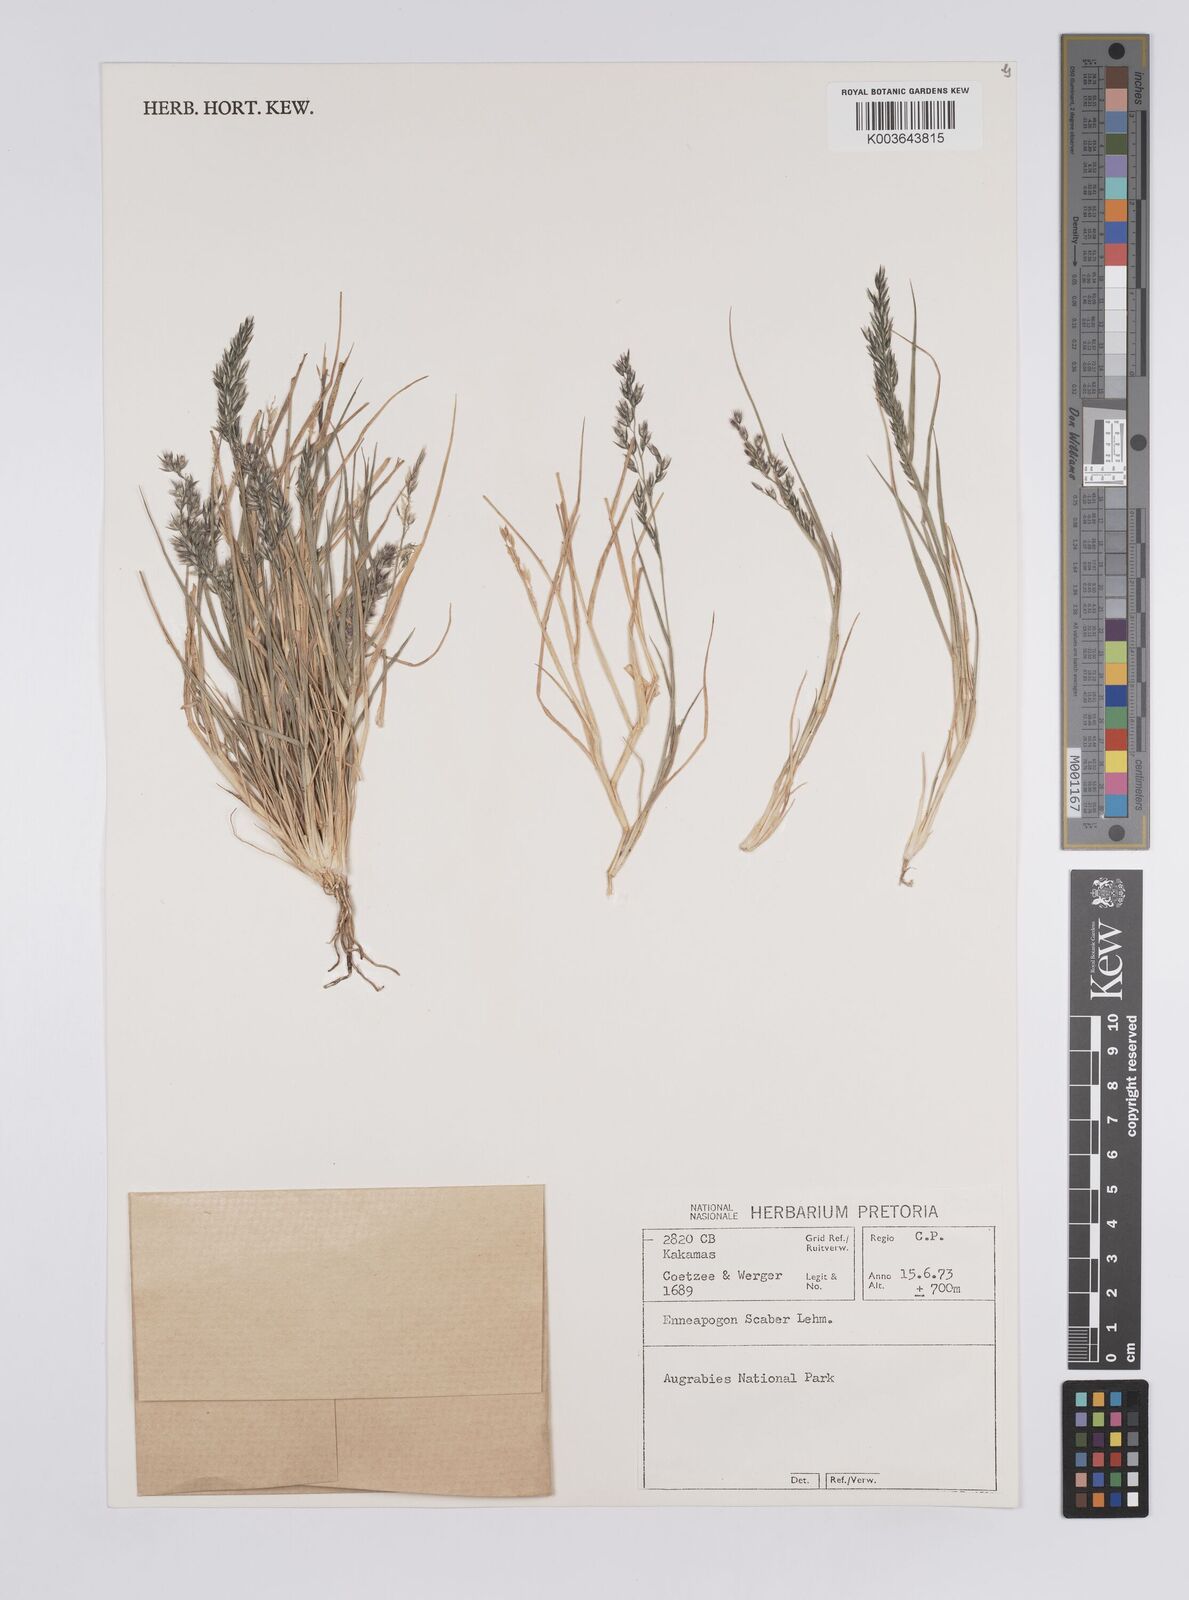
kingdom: Plantae
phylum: Tracheophyta
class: Liliopsida
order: Poales
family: Poaceae
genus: Enneapogon
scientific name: Enneapogon scaber
